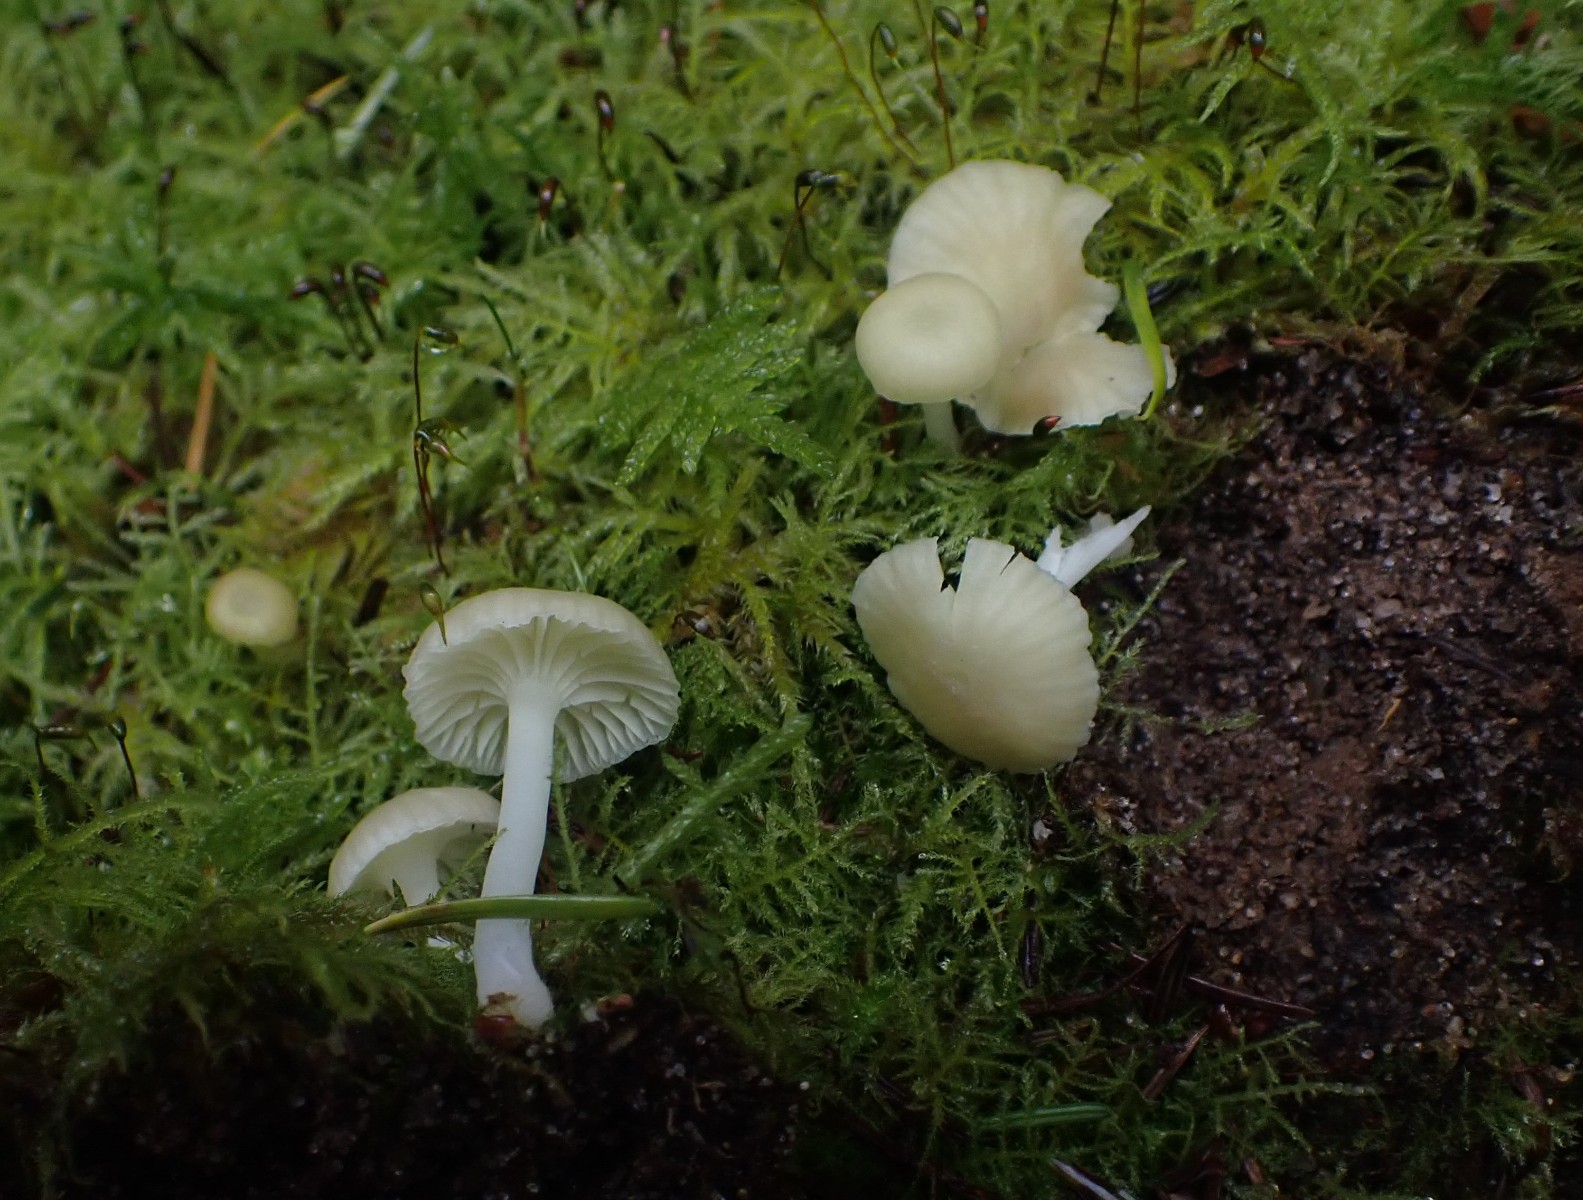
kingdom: Fungi
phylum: Basidiomycota
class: Agaricomycetes
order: Agaricales
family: Hygrophoraceae
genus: Chrysomphalina
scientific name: Chrysomphalina grossula
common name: stød-gyldenblad
